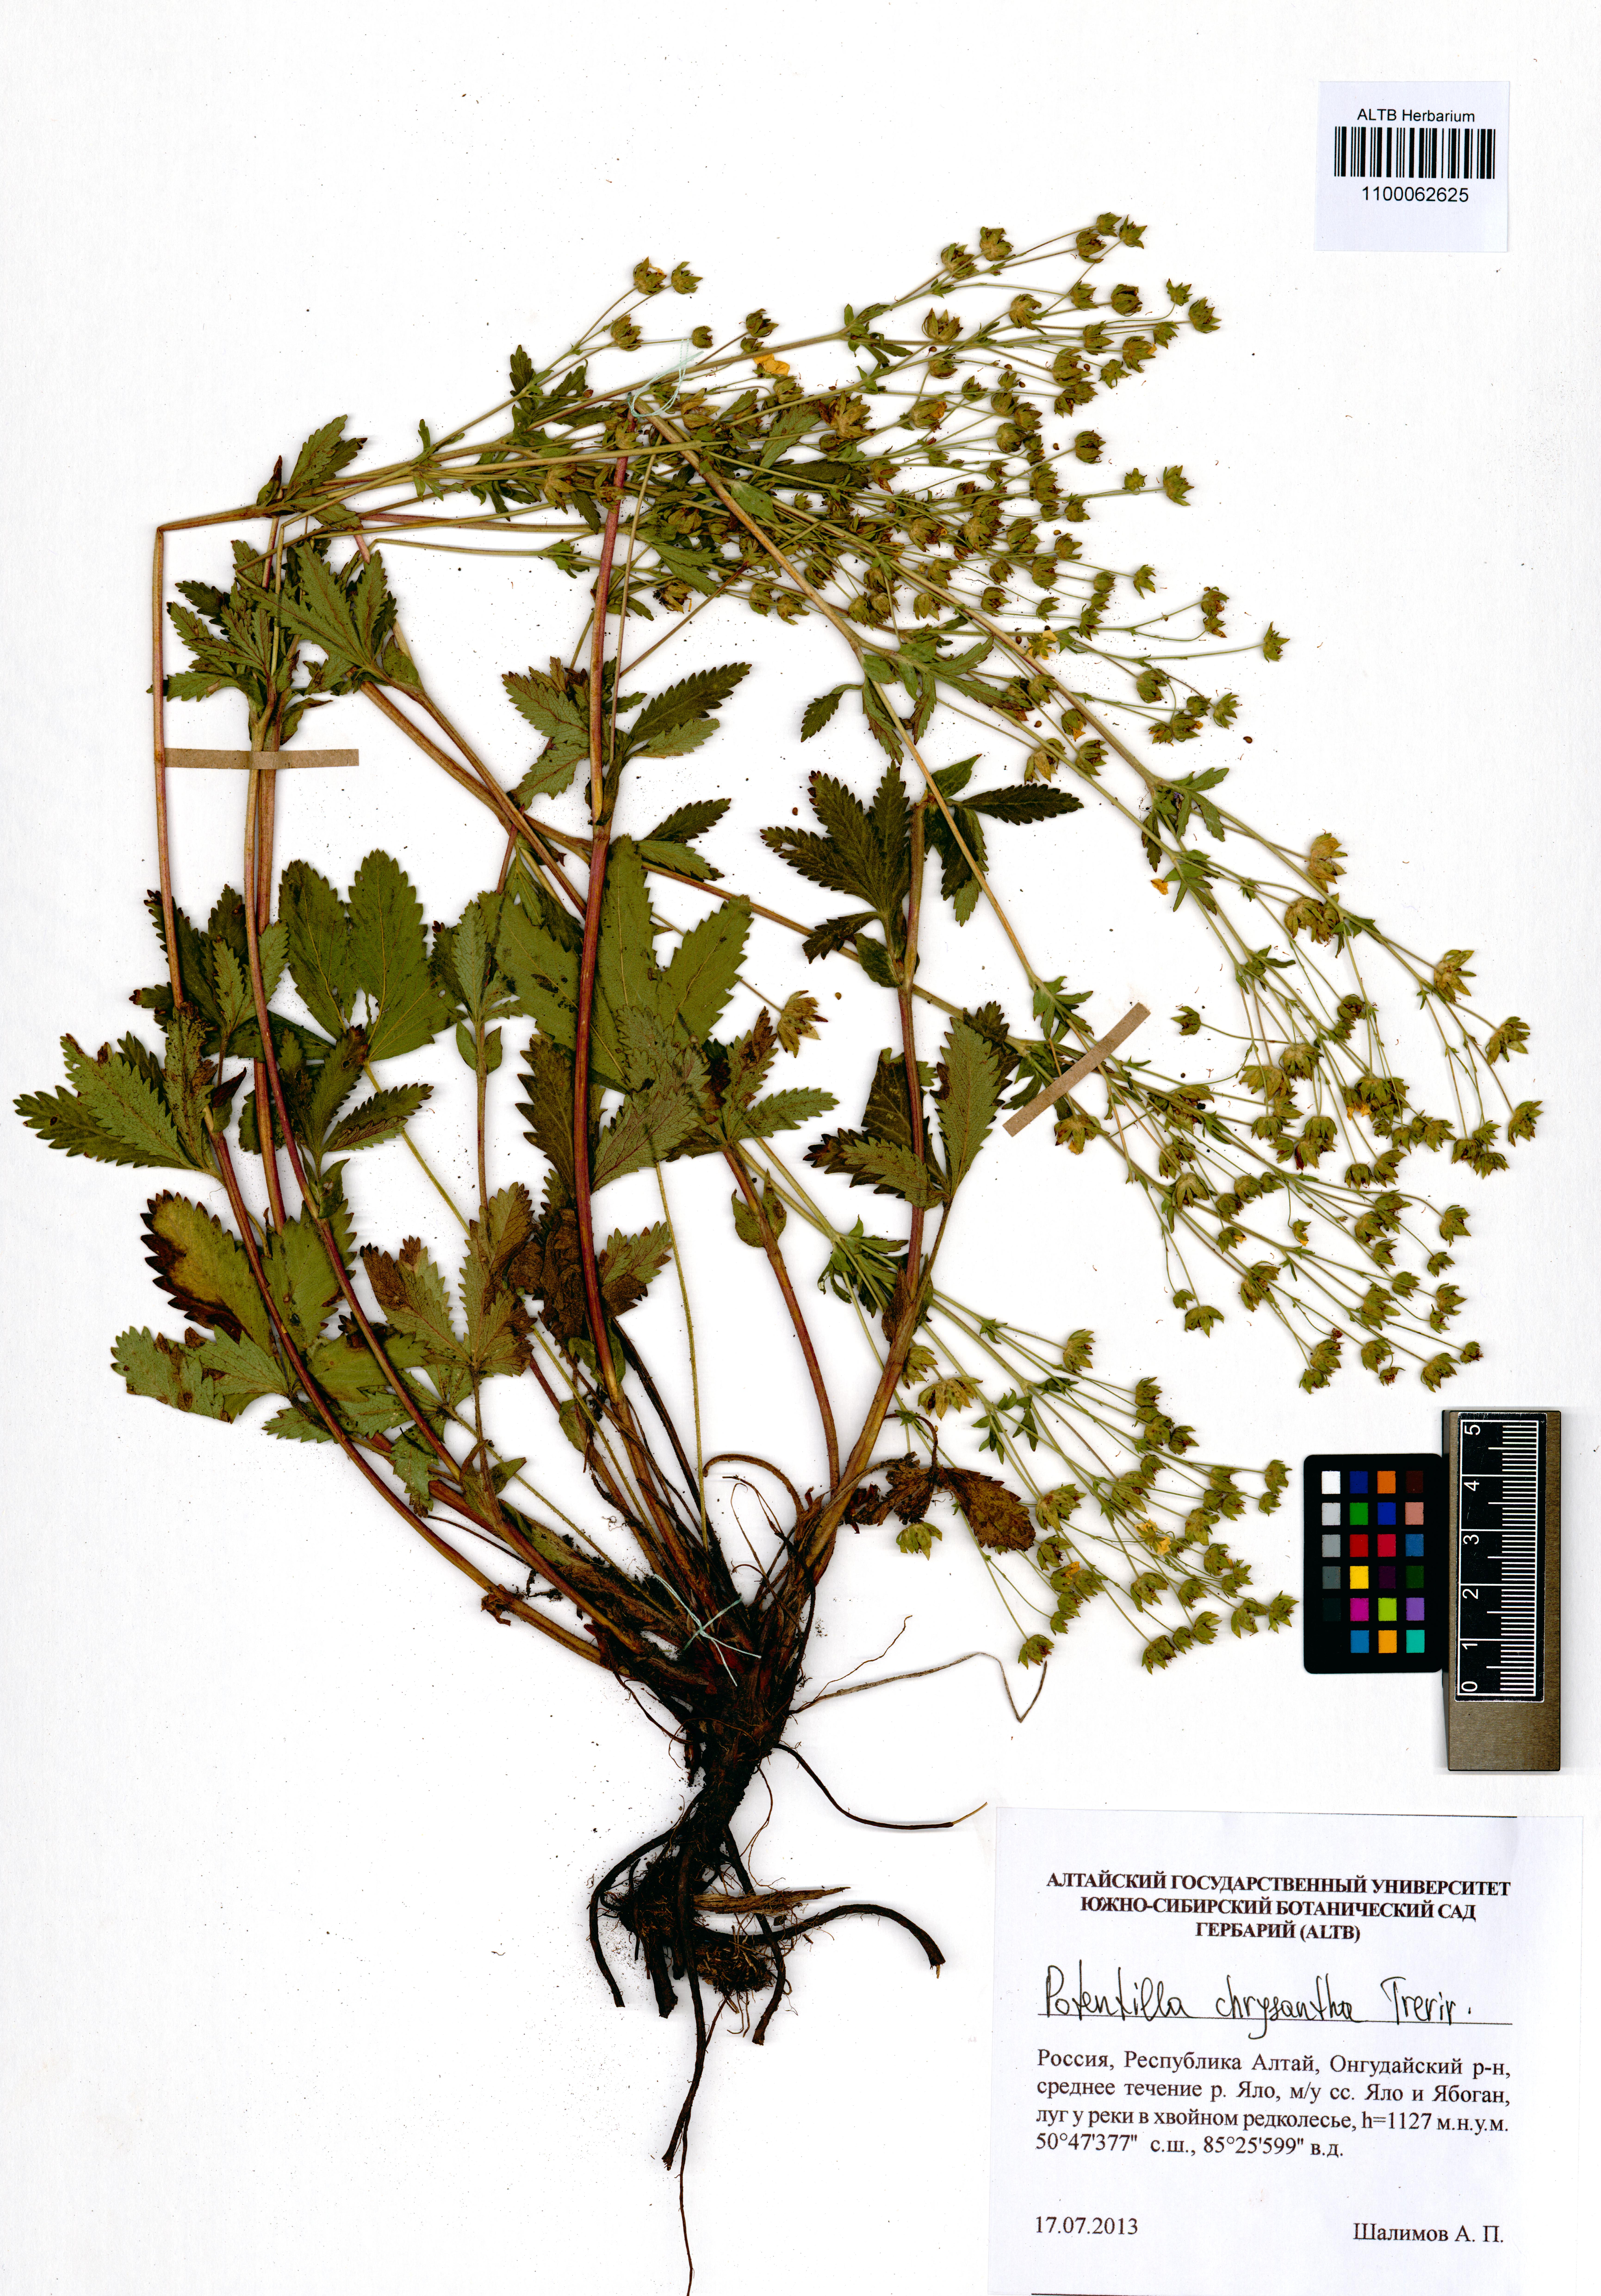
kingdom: Plantae
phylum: Tracheophyta
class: Magnoliopsida
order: Rosales
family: Rosaceae
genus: Potentilla
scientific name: Potentilla chrysantha
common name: Thuringian cinquefoil
